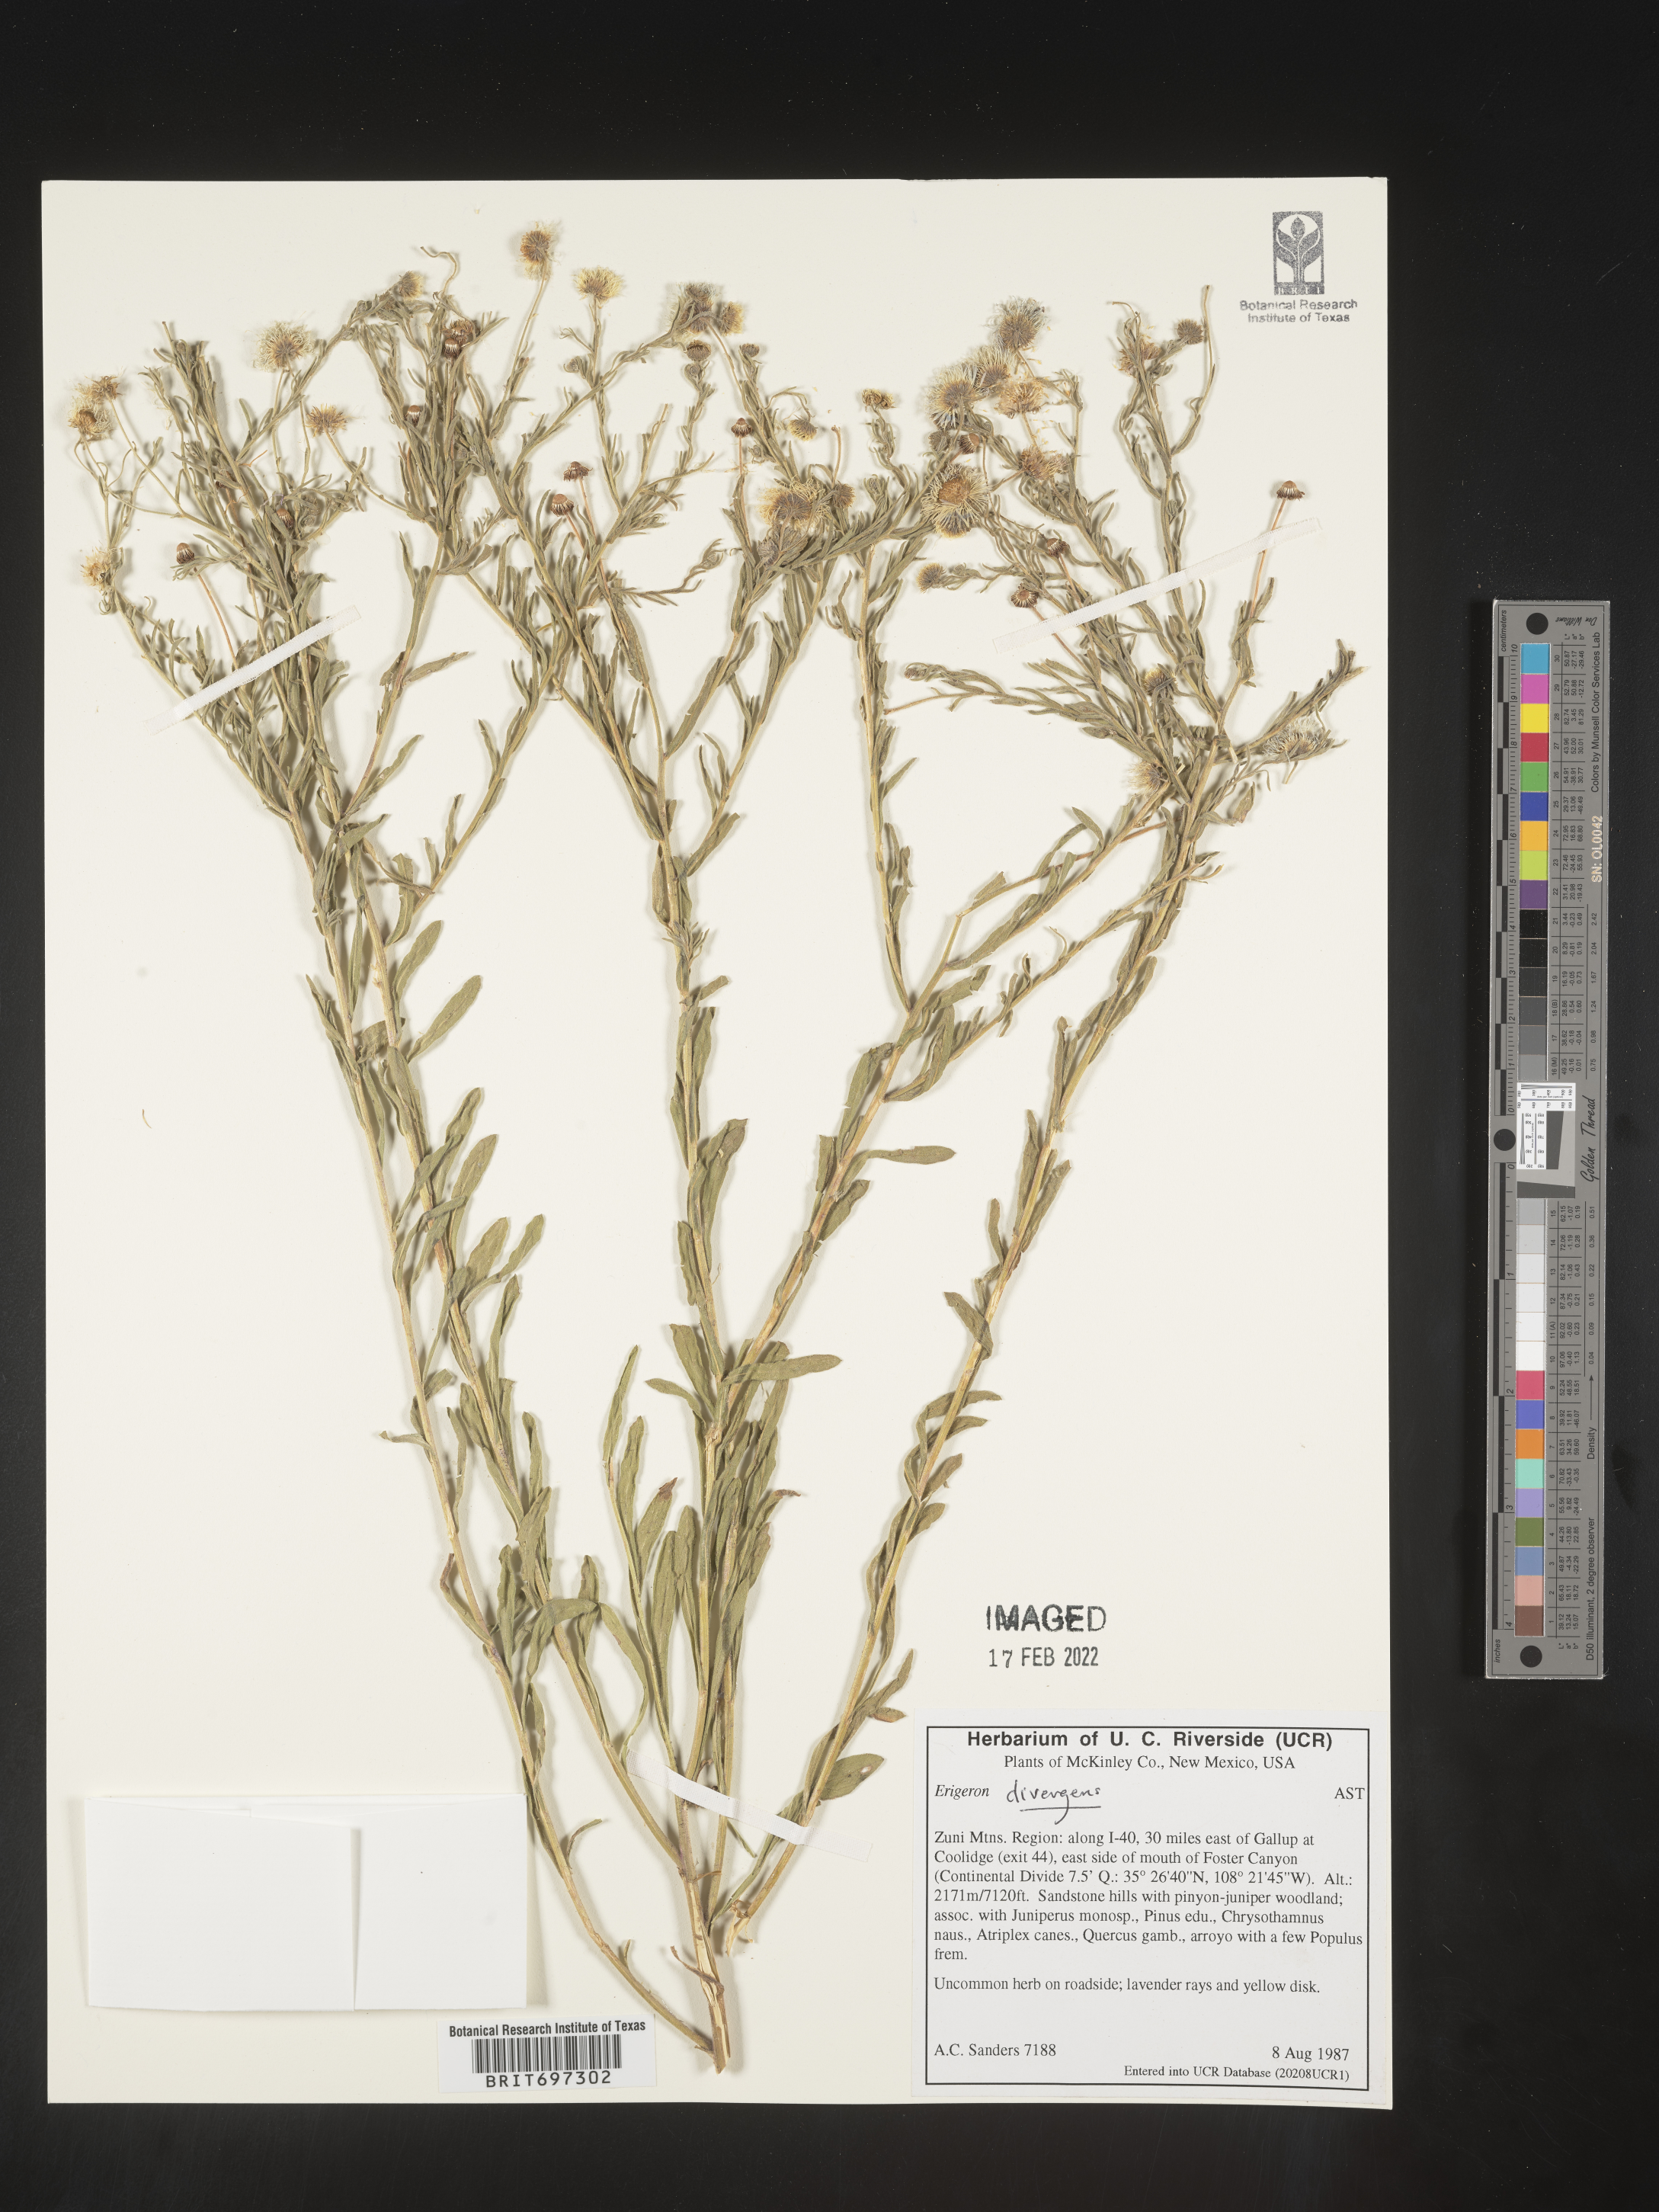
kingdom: Plantae
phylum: Tracheophyta
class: Magnoliopsida
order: Asterales
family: Asteraceae
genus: Erigeron
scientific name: Erigeron divergens
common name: Diffuse fleabane
